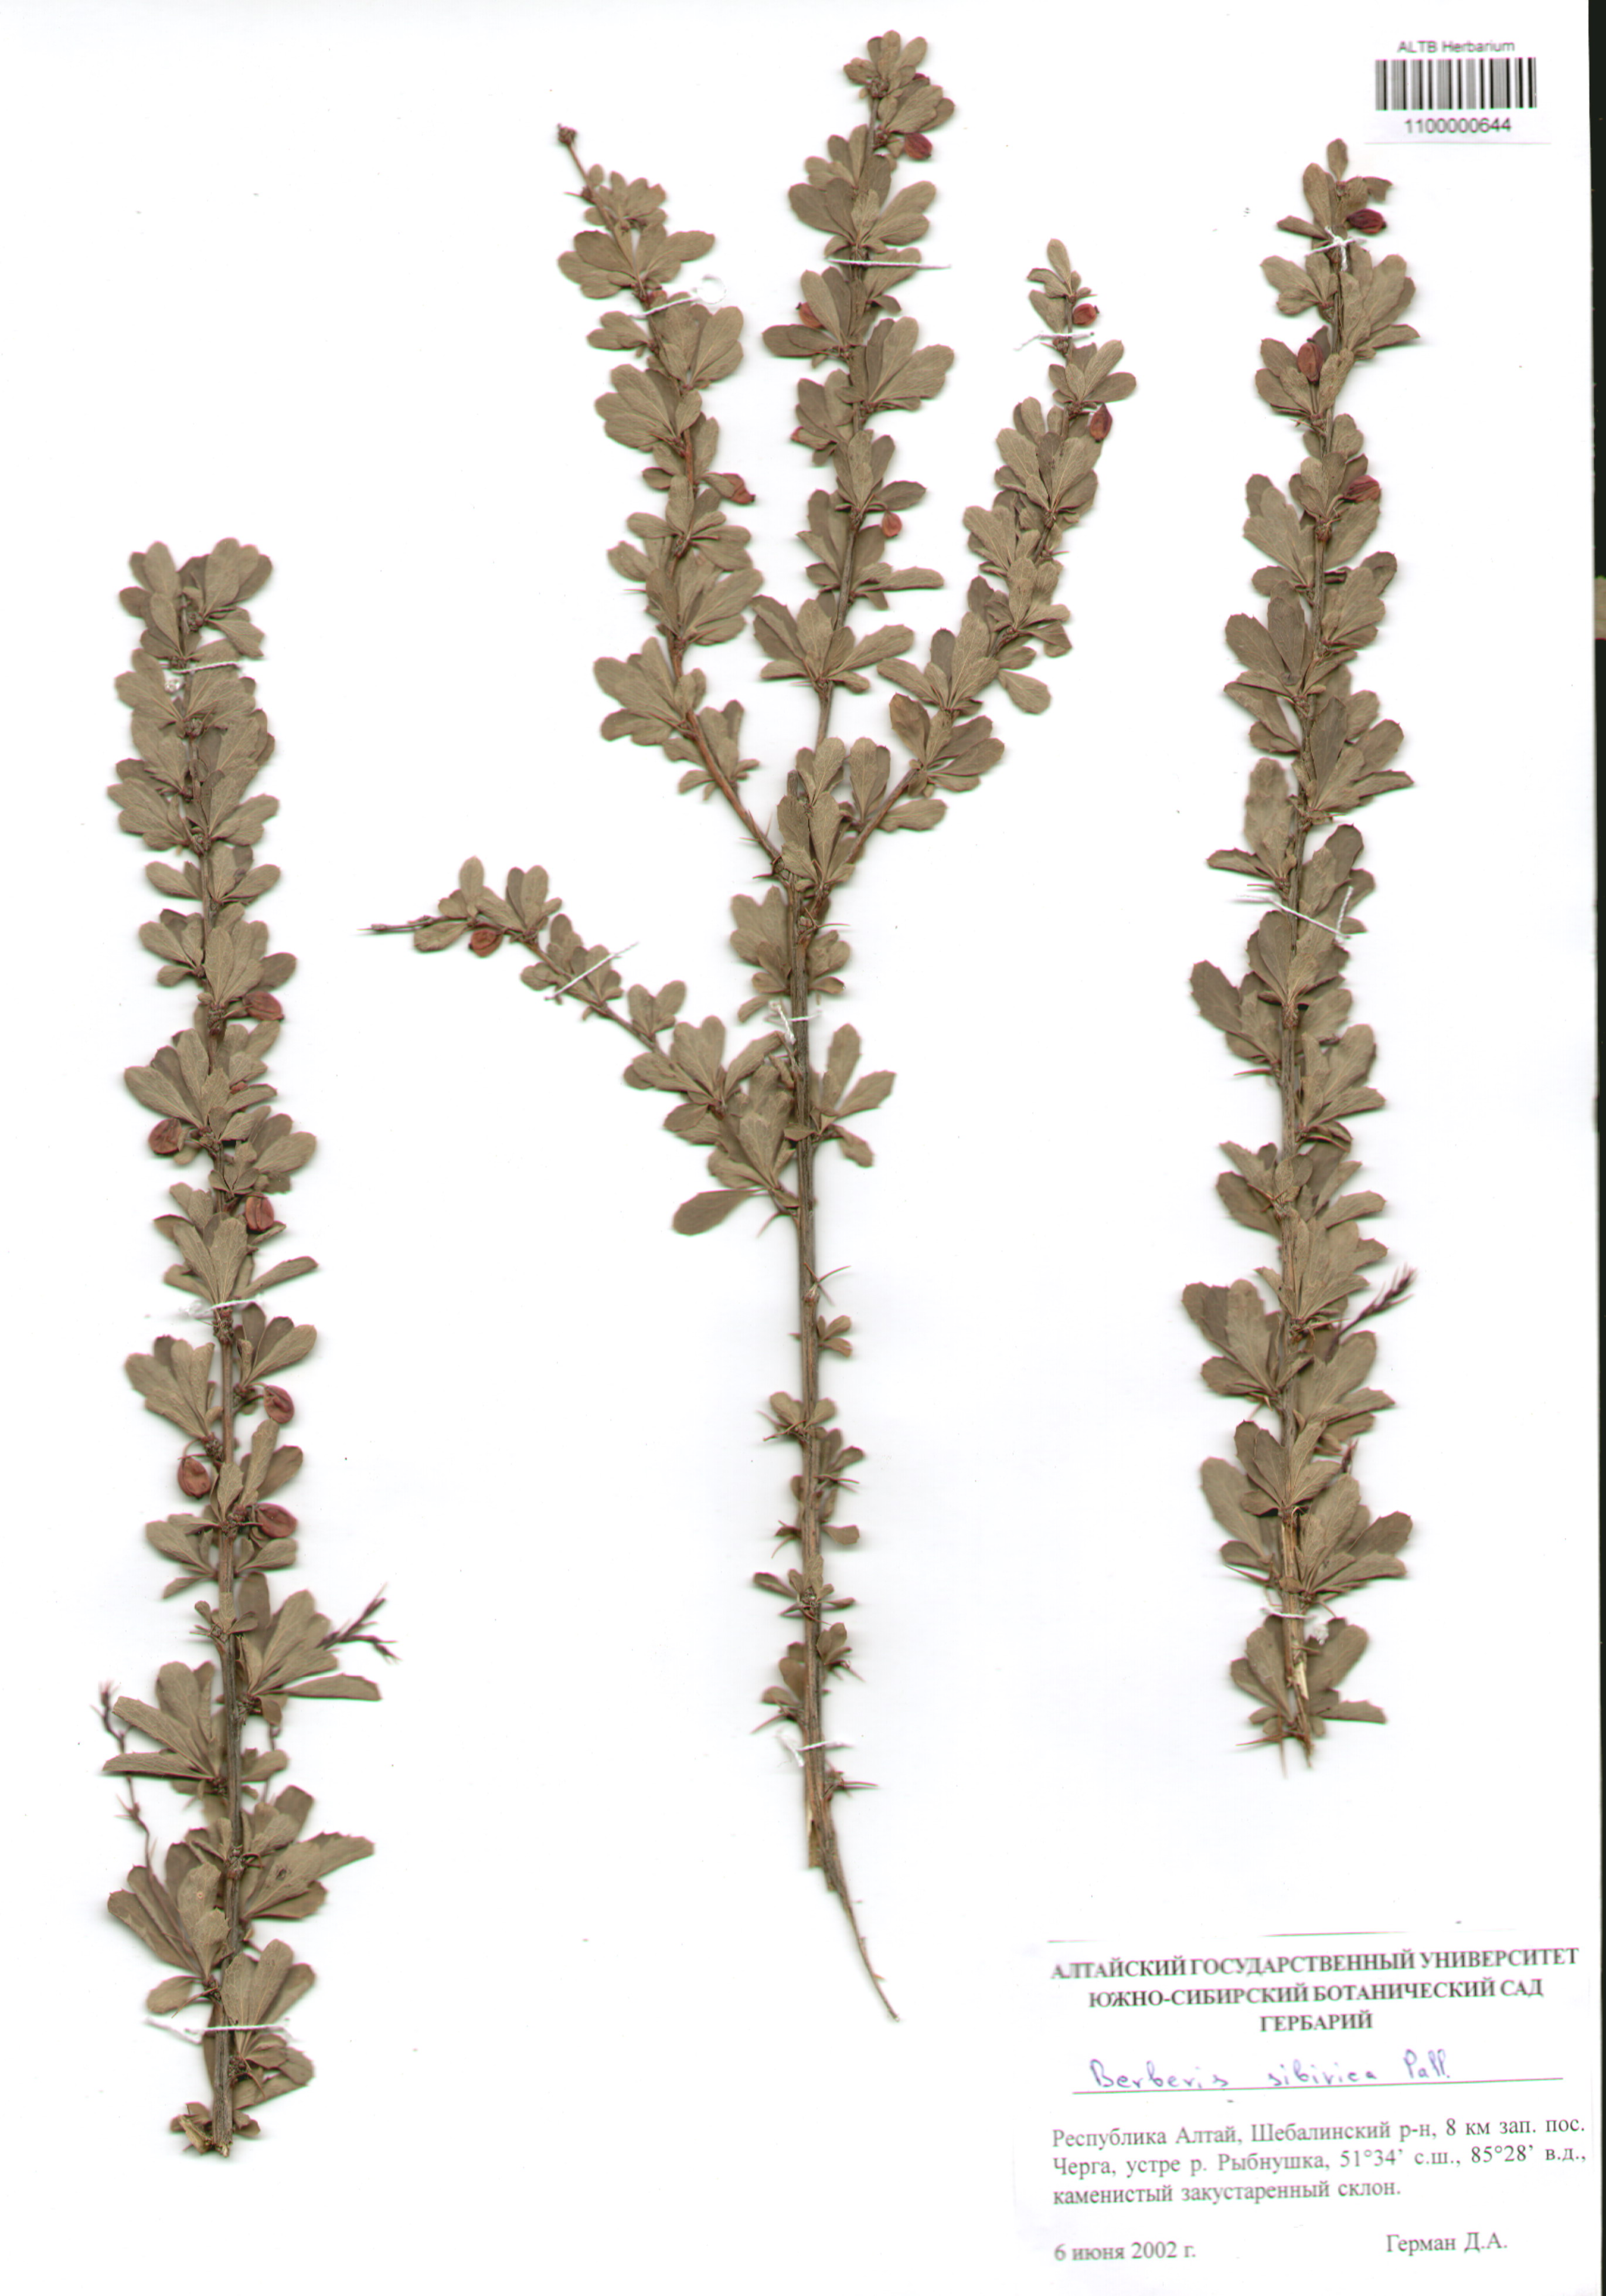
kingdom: Plantae
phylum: Tracheophyta
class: Magnoliopsida
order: Ranunculales
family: Berberidaceae
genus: Berberis
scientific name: Berberis sibirica
